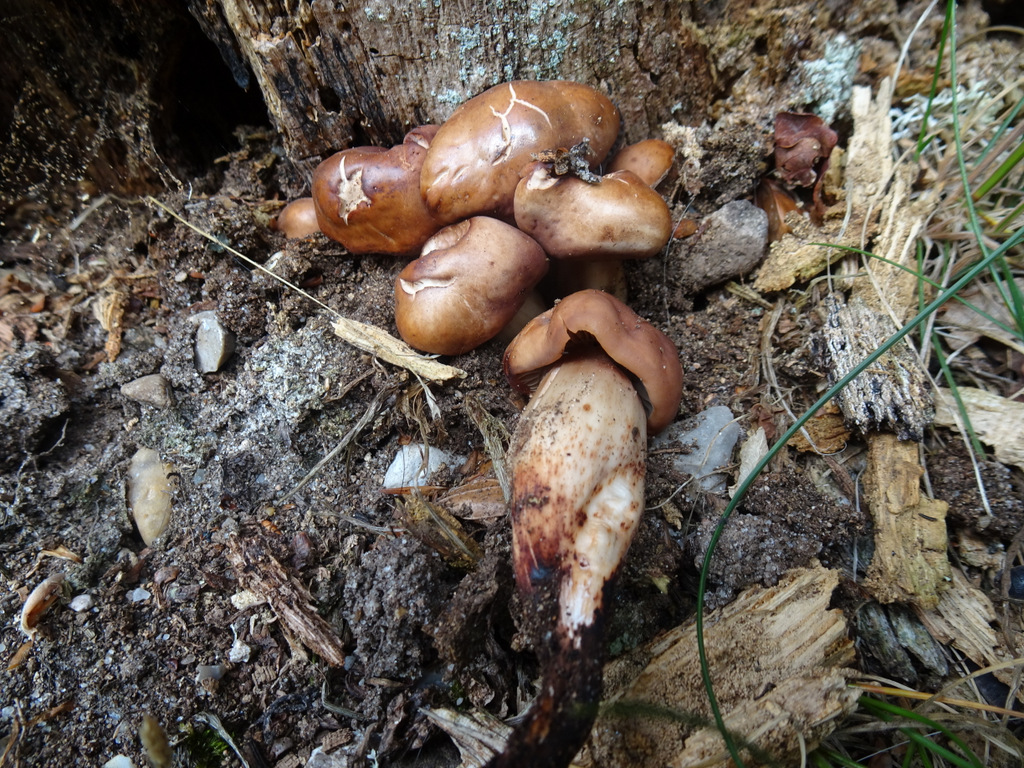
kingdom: Fungi
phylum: Basidiomycota
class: Agaricomycetes
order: Agaricales
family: Omphalotaceae
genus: Gymnopus
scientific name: Gymnopus fusipes
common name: tenstokket fladhat
